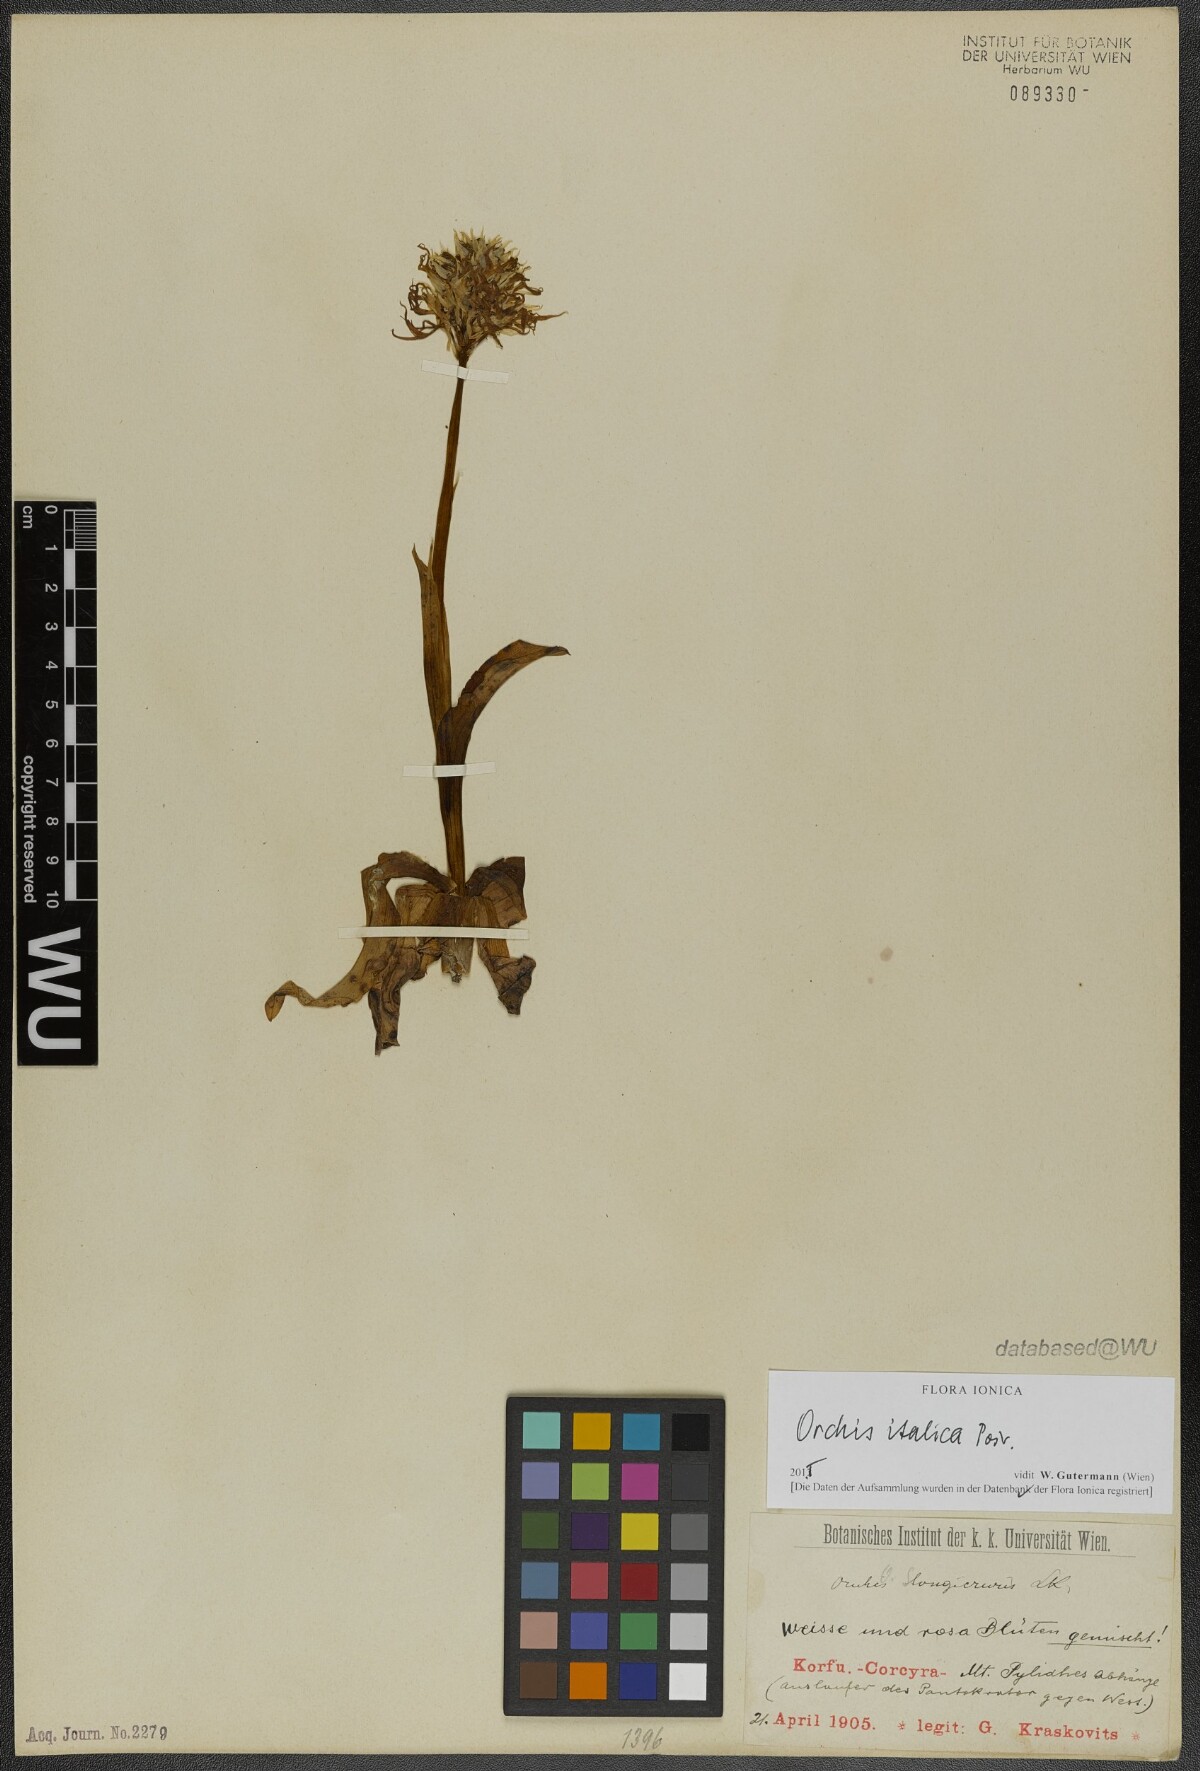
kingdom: Plantae
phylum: Tracheophyta
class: Liliopsida
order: Asparagales
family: Orchidaceae
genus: Orchis
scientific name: Orchis italica
